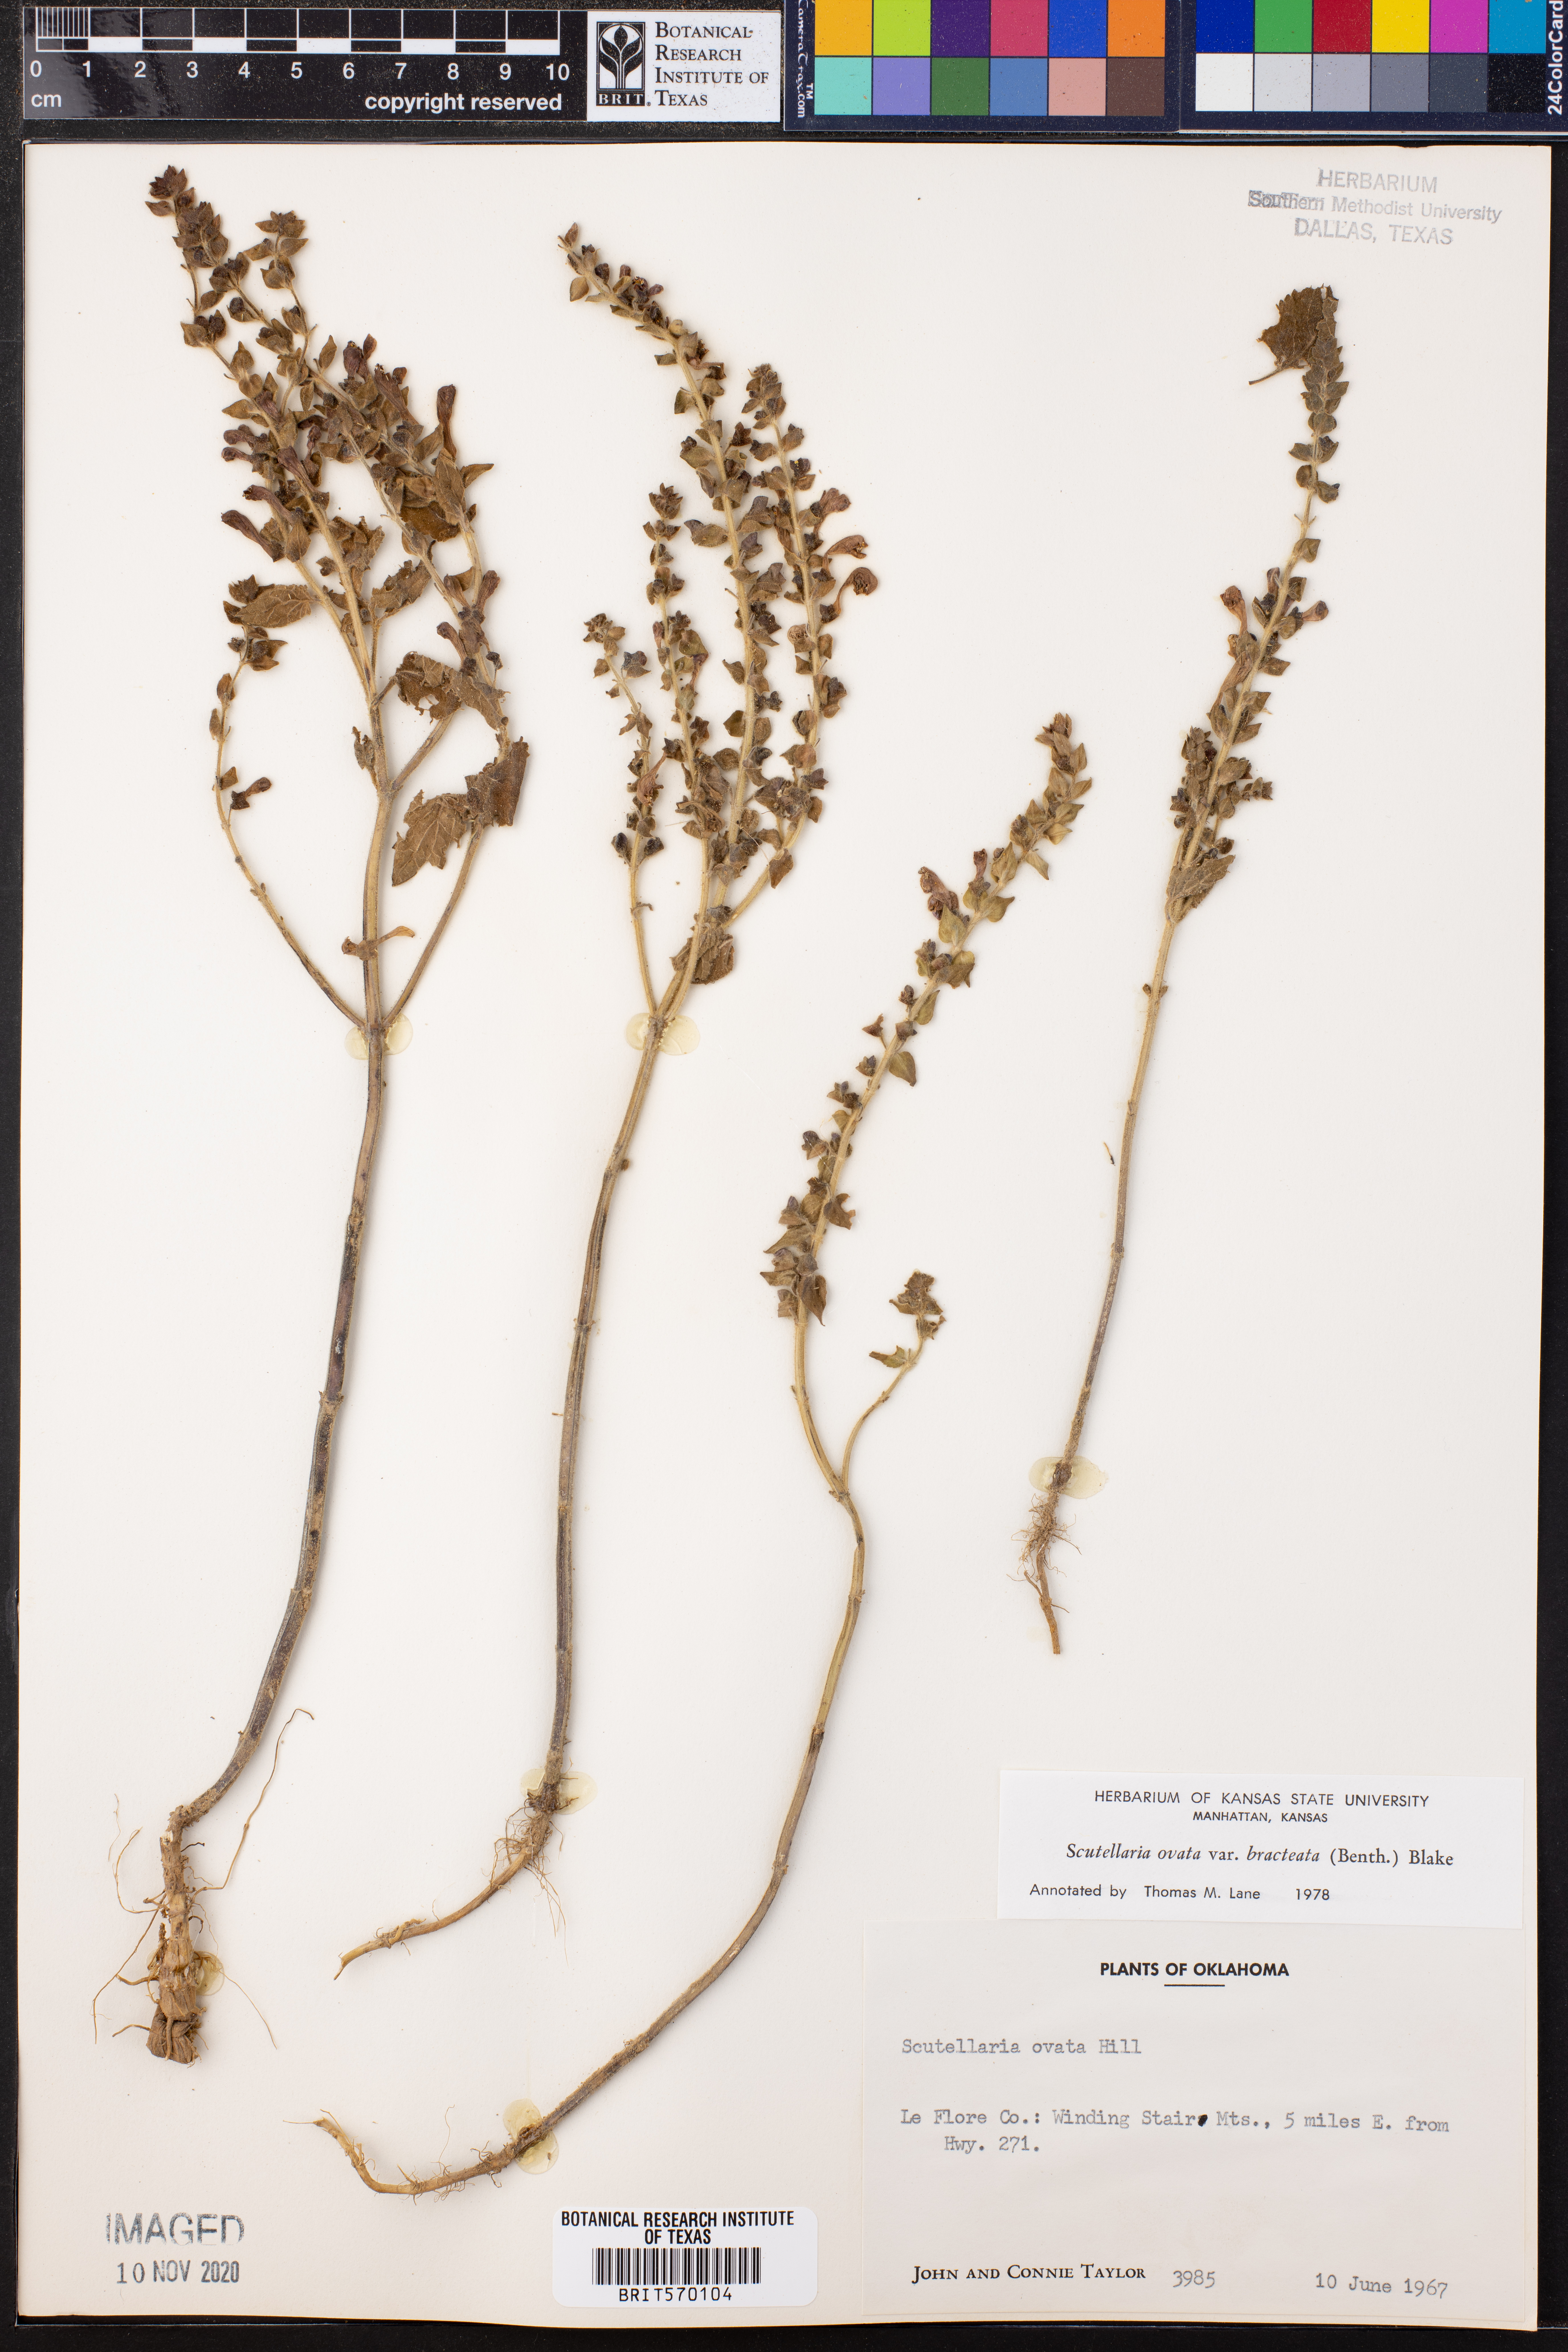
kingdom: Plantae
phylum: Tracheophyta
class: Magnoliopsida
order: Lamiales
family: Lamiaceae
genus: Scutellaria
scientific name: Scutellaria ovata
